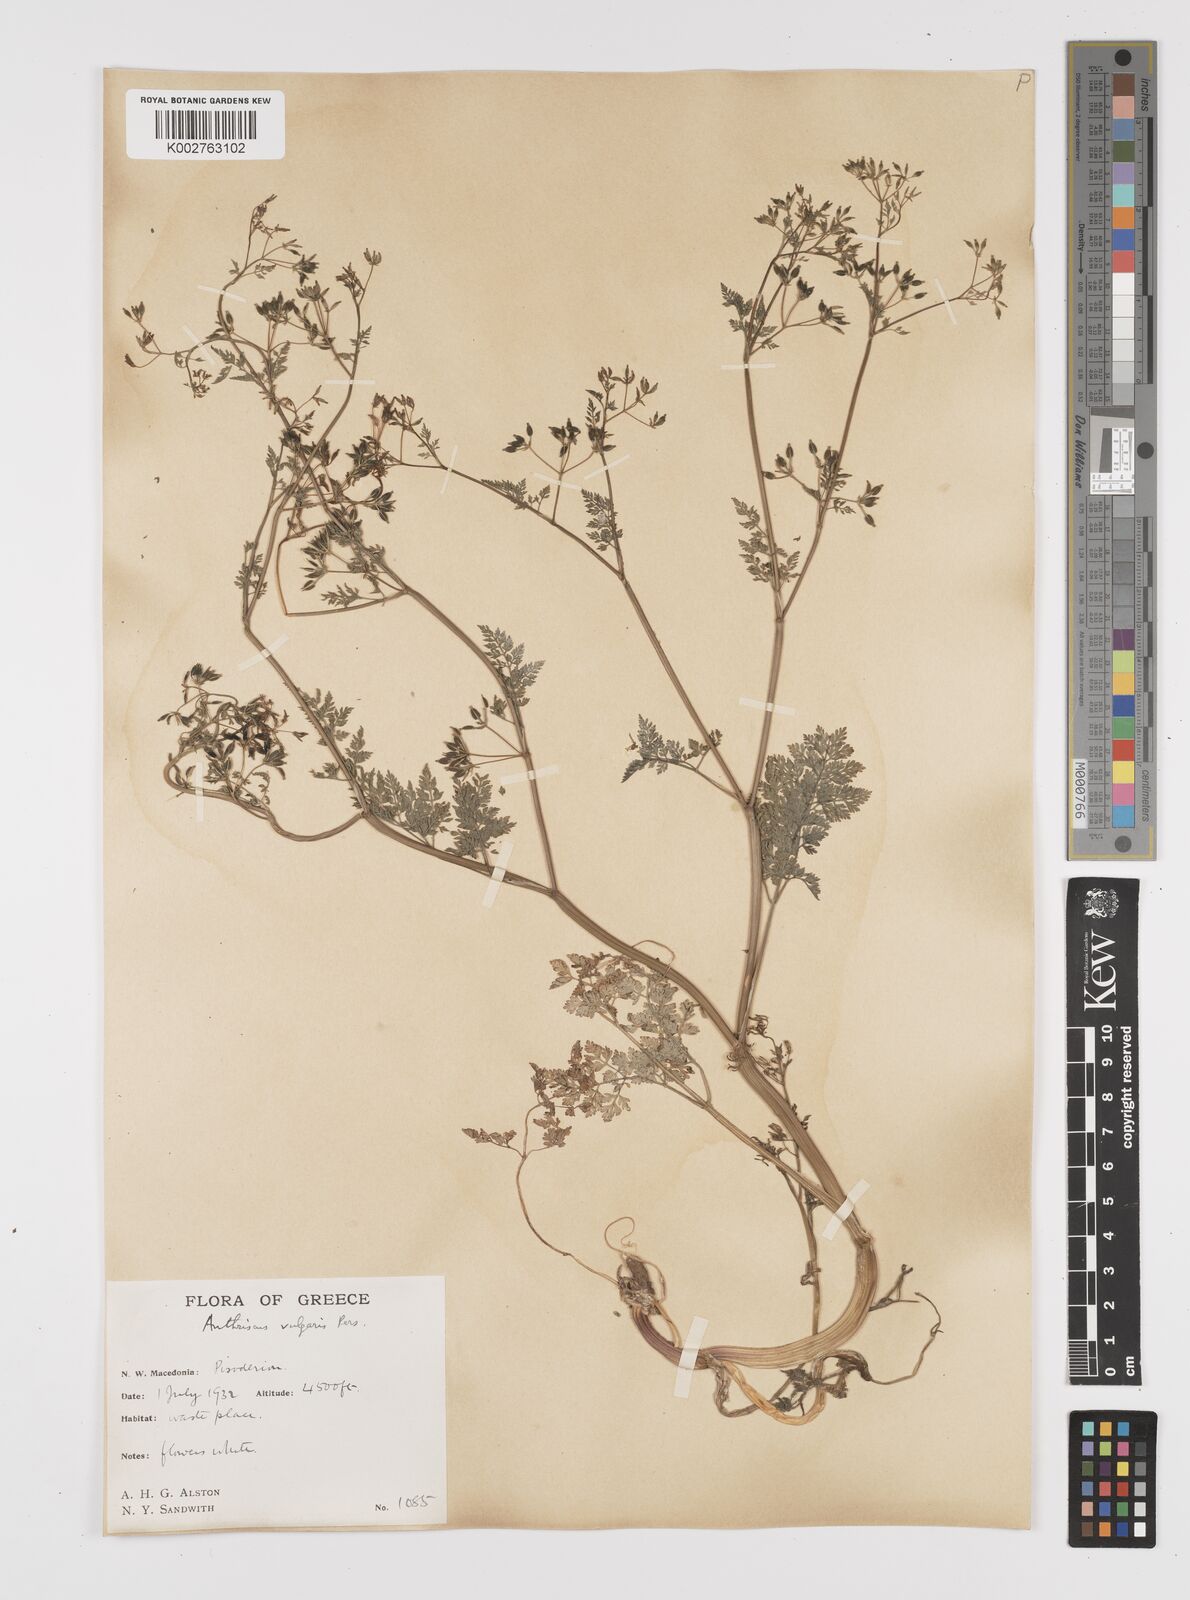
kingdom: Plantae
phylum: Tracheophyta
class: Magnoliopsida
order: Apiales
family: Apiaceae
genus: Anthriscus
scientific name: Anthriscus caucalis
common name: Bur chervil
